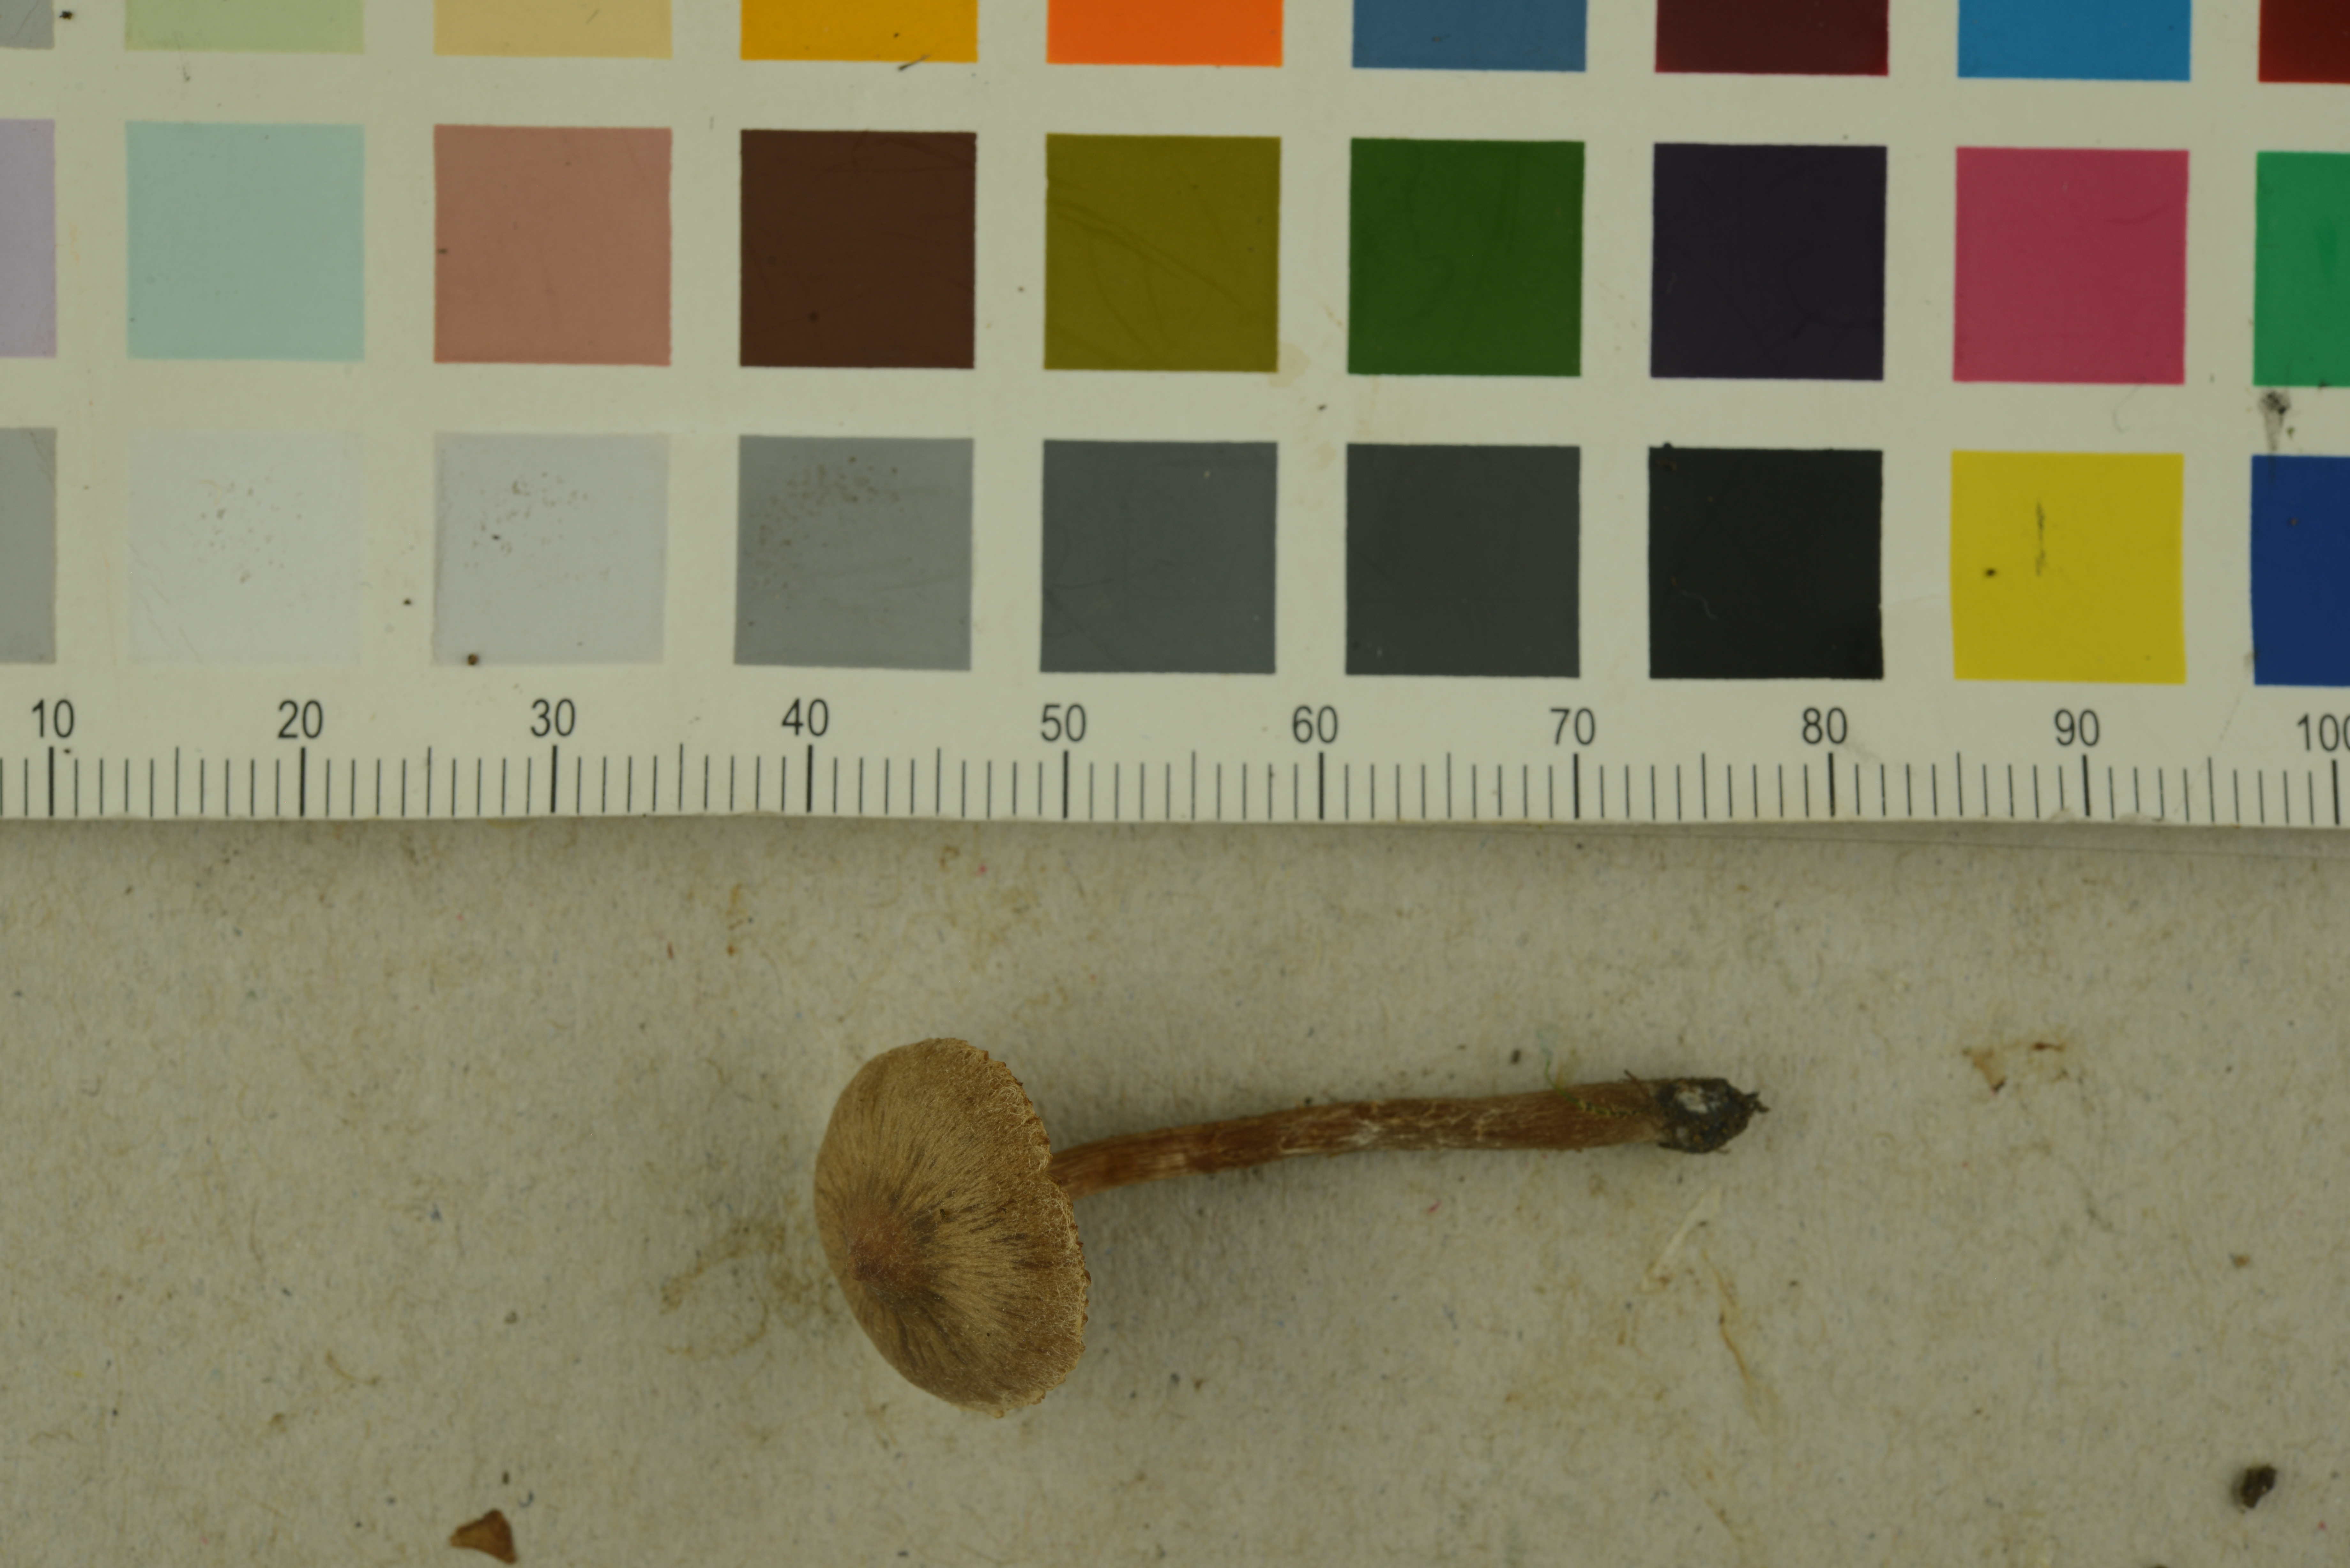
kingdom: Fungi
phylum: Basidiomycota
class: Agaricomycetes
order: Agaricales
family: Cortinariaceae
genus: Cortinarius
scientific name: Cortinarius diasemospermus
